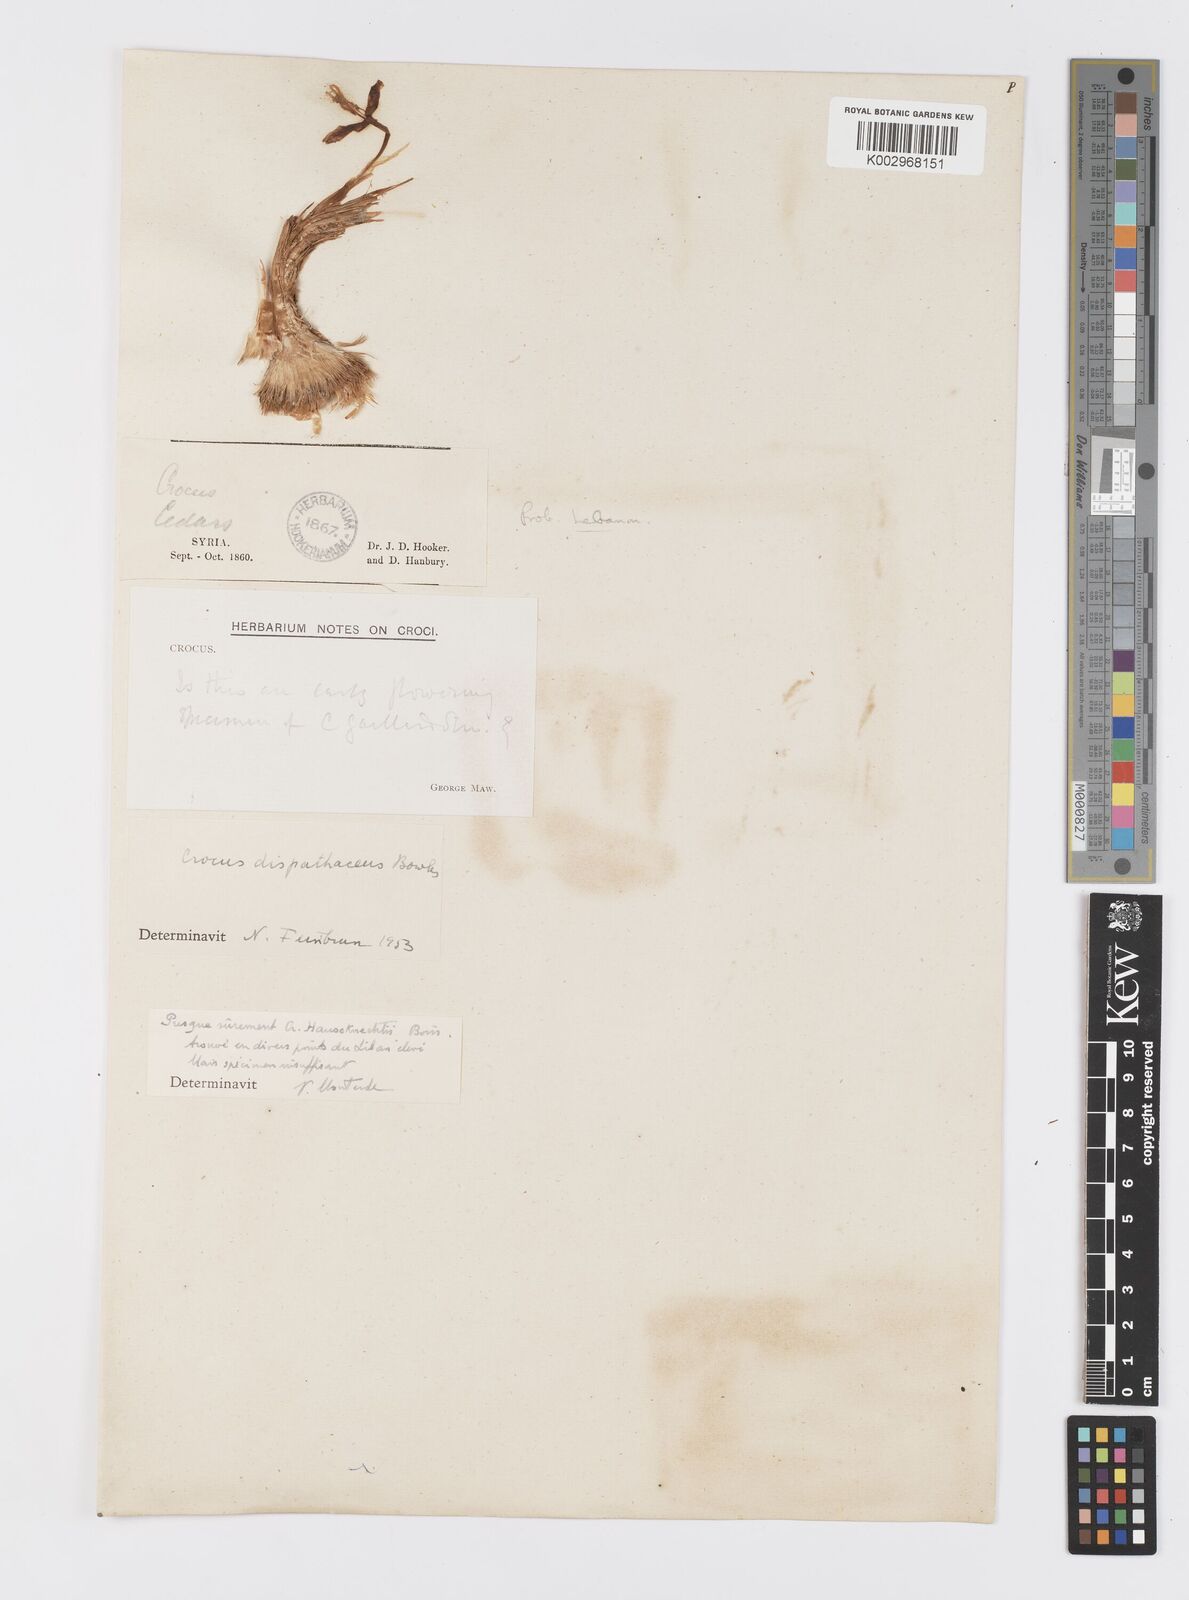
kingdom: Plantae
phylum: Tracheophyta
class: Liliopsida
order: Asparagales
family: Iridaceae
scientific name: Iridaceae
